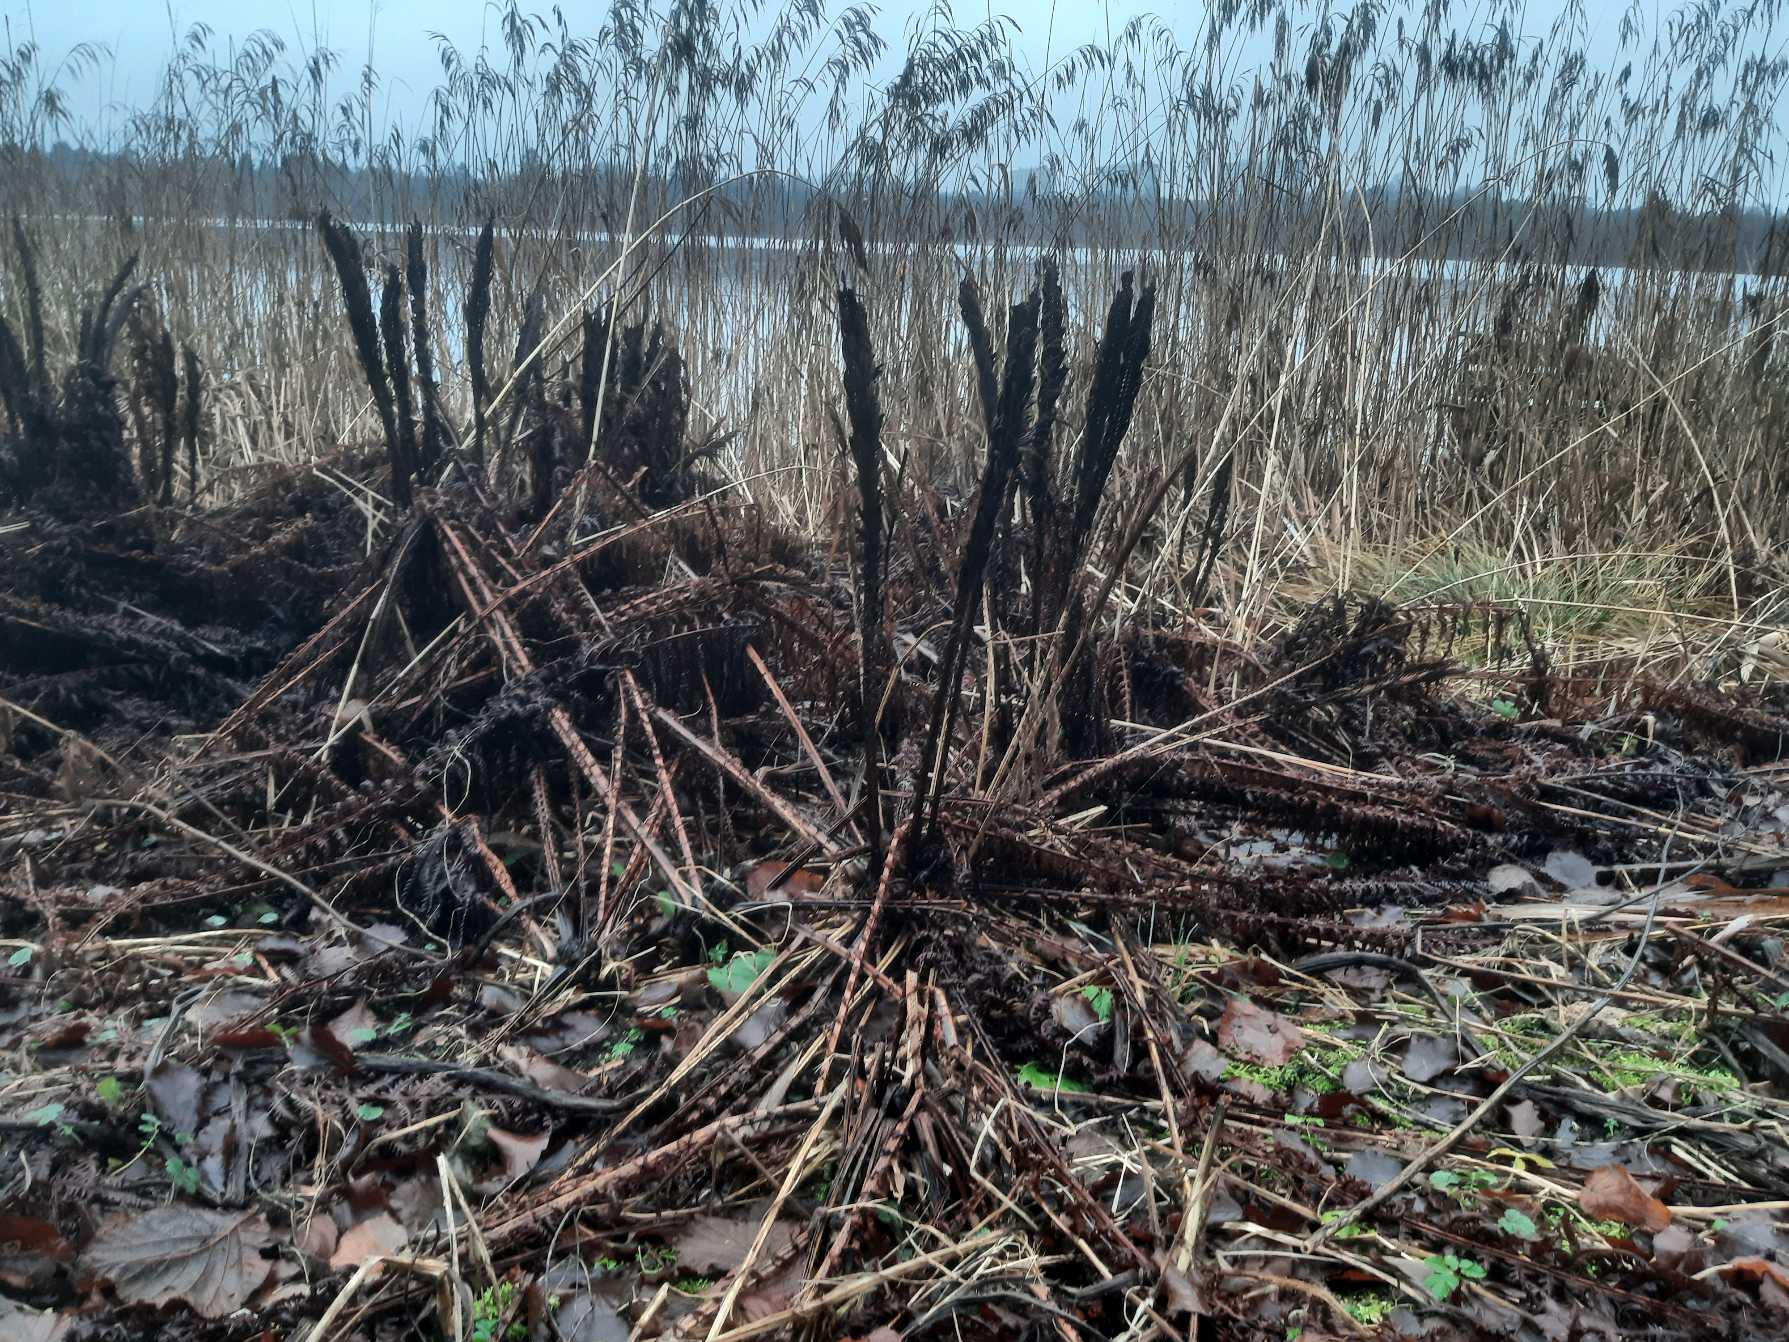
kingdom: Plantae
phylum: Tracheophyta
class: Polypodiopsida
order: Polypodiales
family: Onocleaceae
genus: Matteuccia
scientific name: Matteuccia struthiopteris
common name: Strudsvinge
